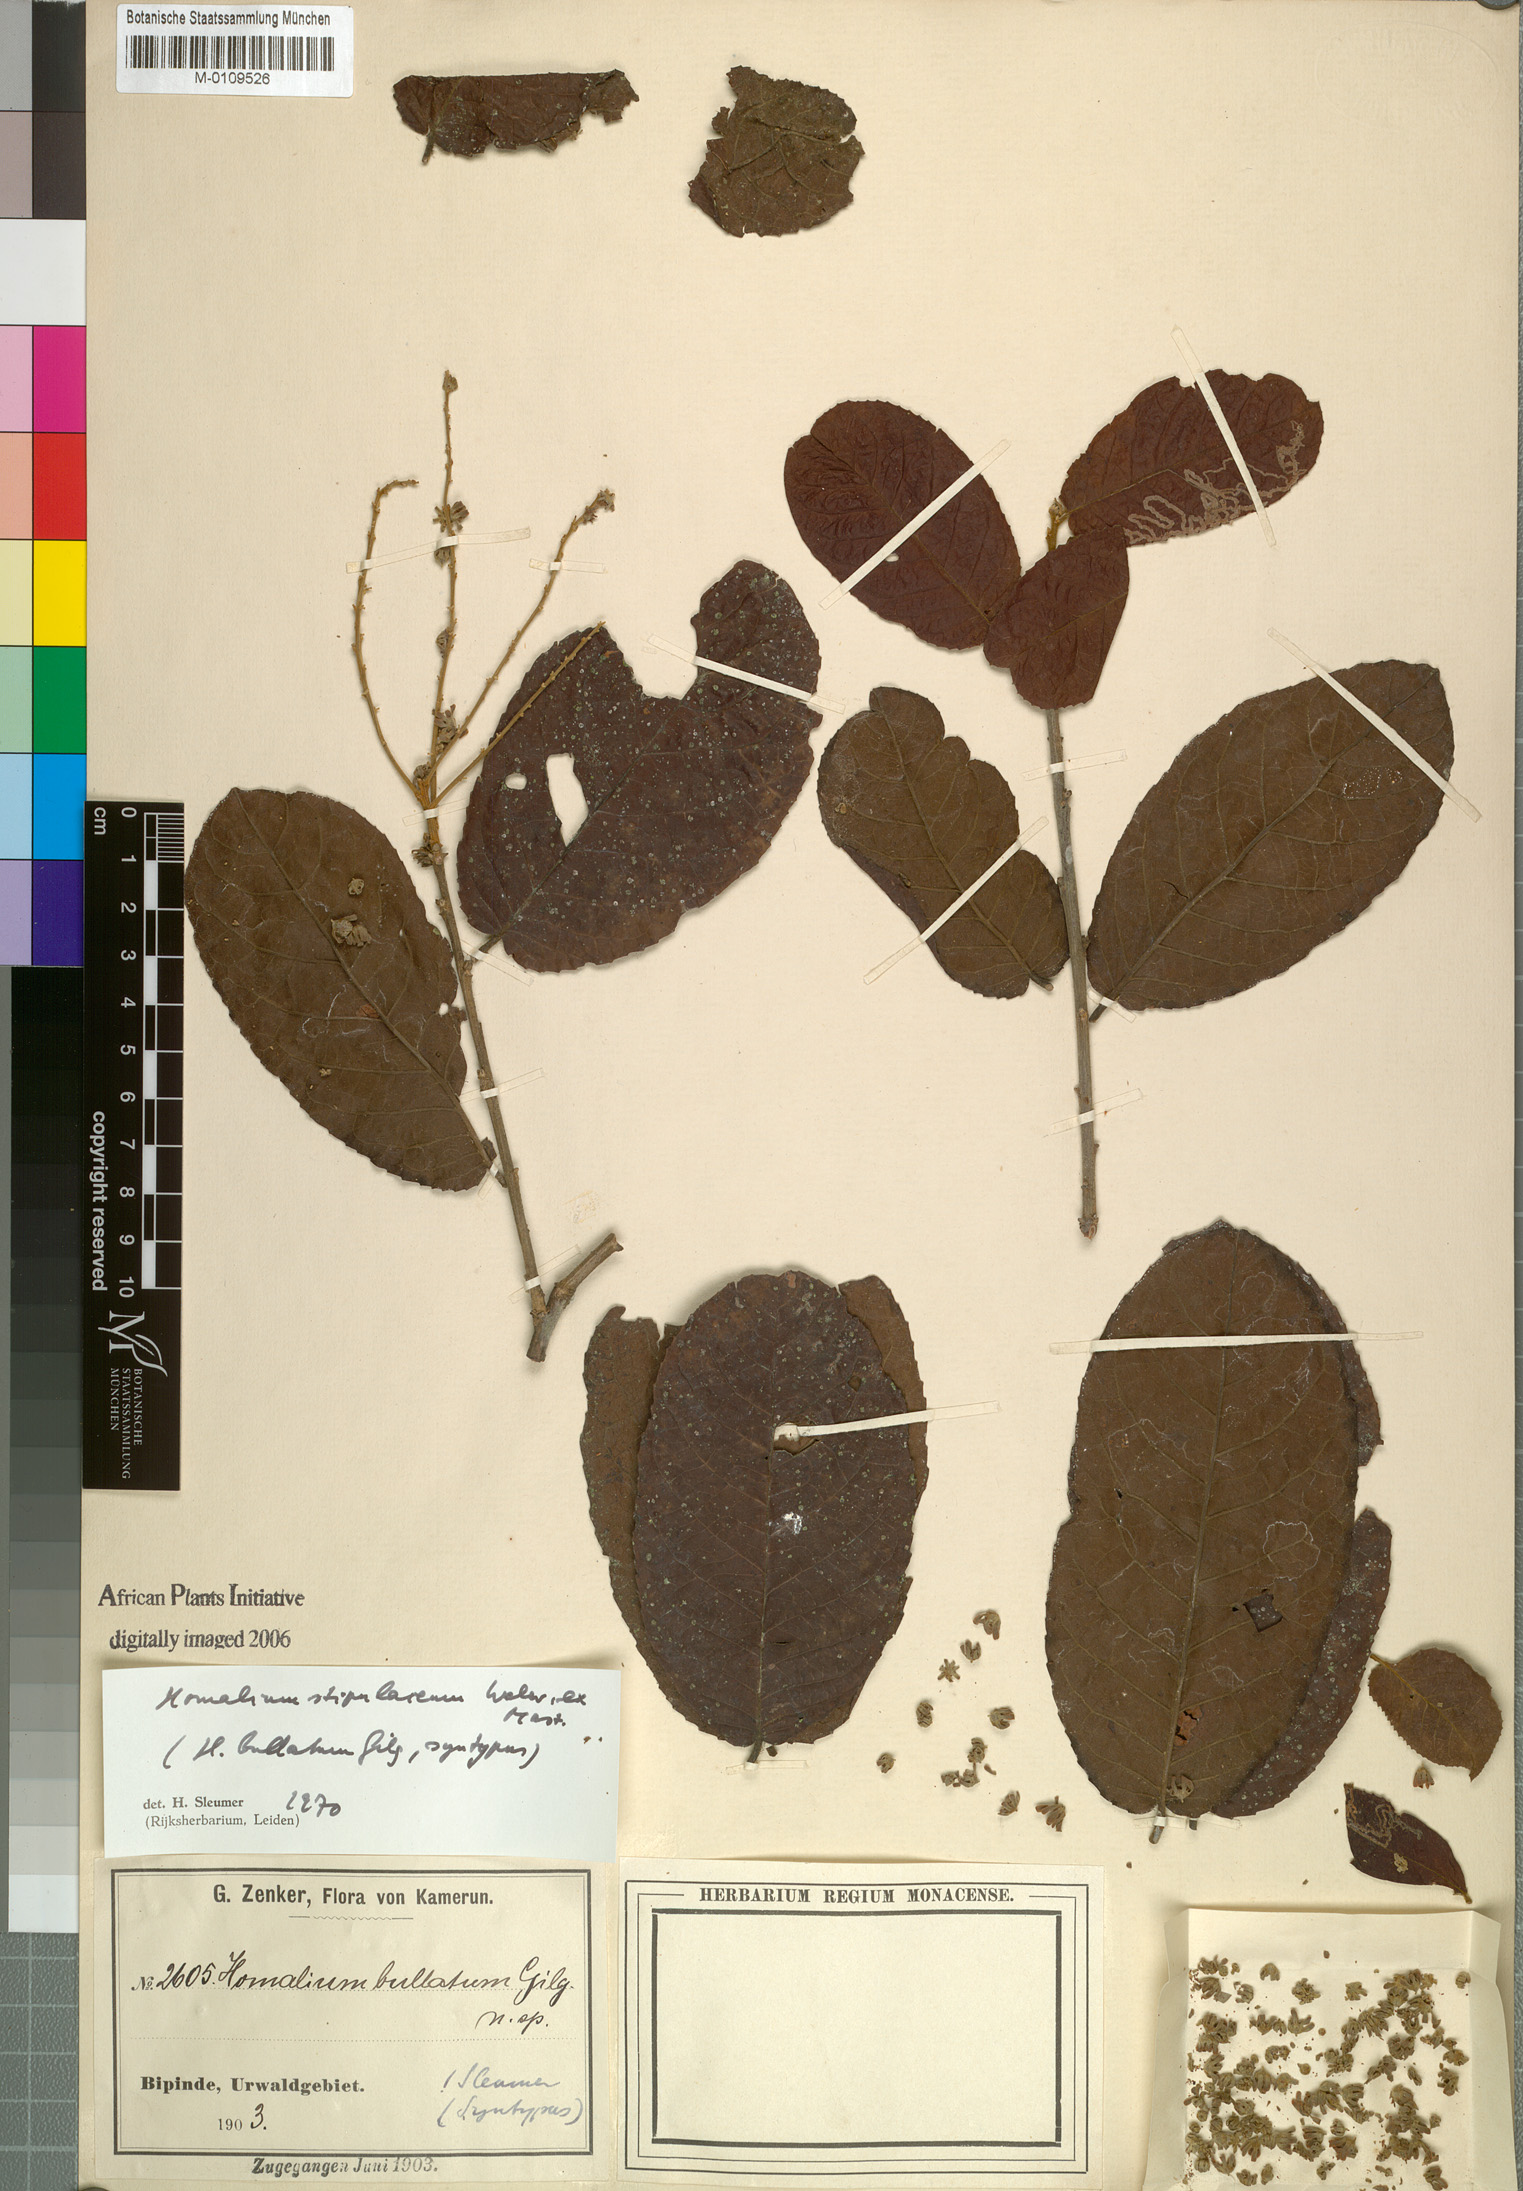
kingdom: Plantae
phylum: Tracheophyta
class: Magnoliopsida
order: Malpighiales
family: Salicaceae
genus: Homalium
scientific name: Homalium stipulaceum
